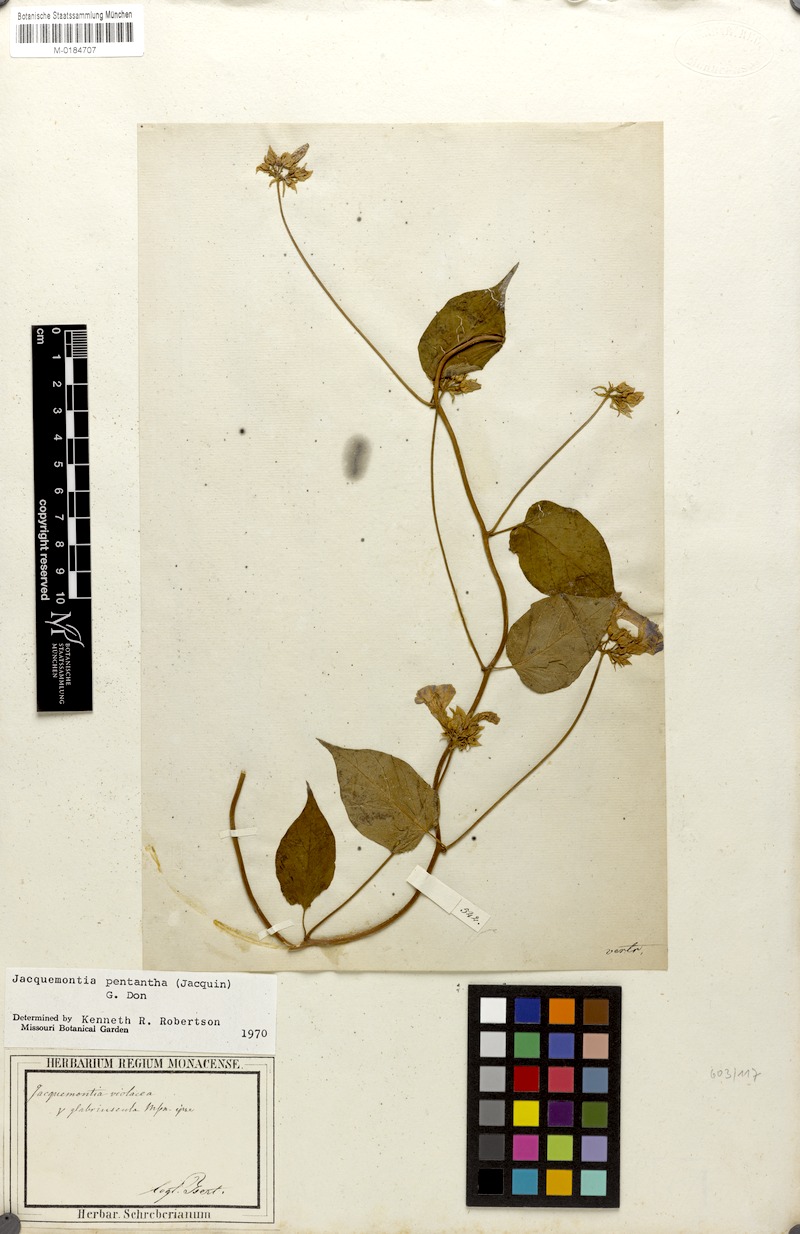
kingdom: Plantae
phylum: Tracheophyta
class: Magnoliopsida
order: Solanales
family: Convolvulaceae
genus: Jacquemontia
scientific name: Jacquemontia pentanthos
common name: Skyblue clustervine
